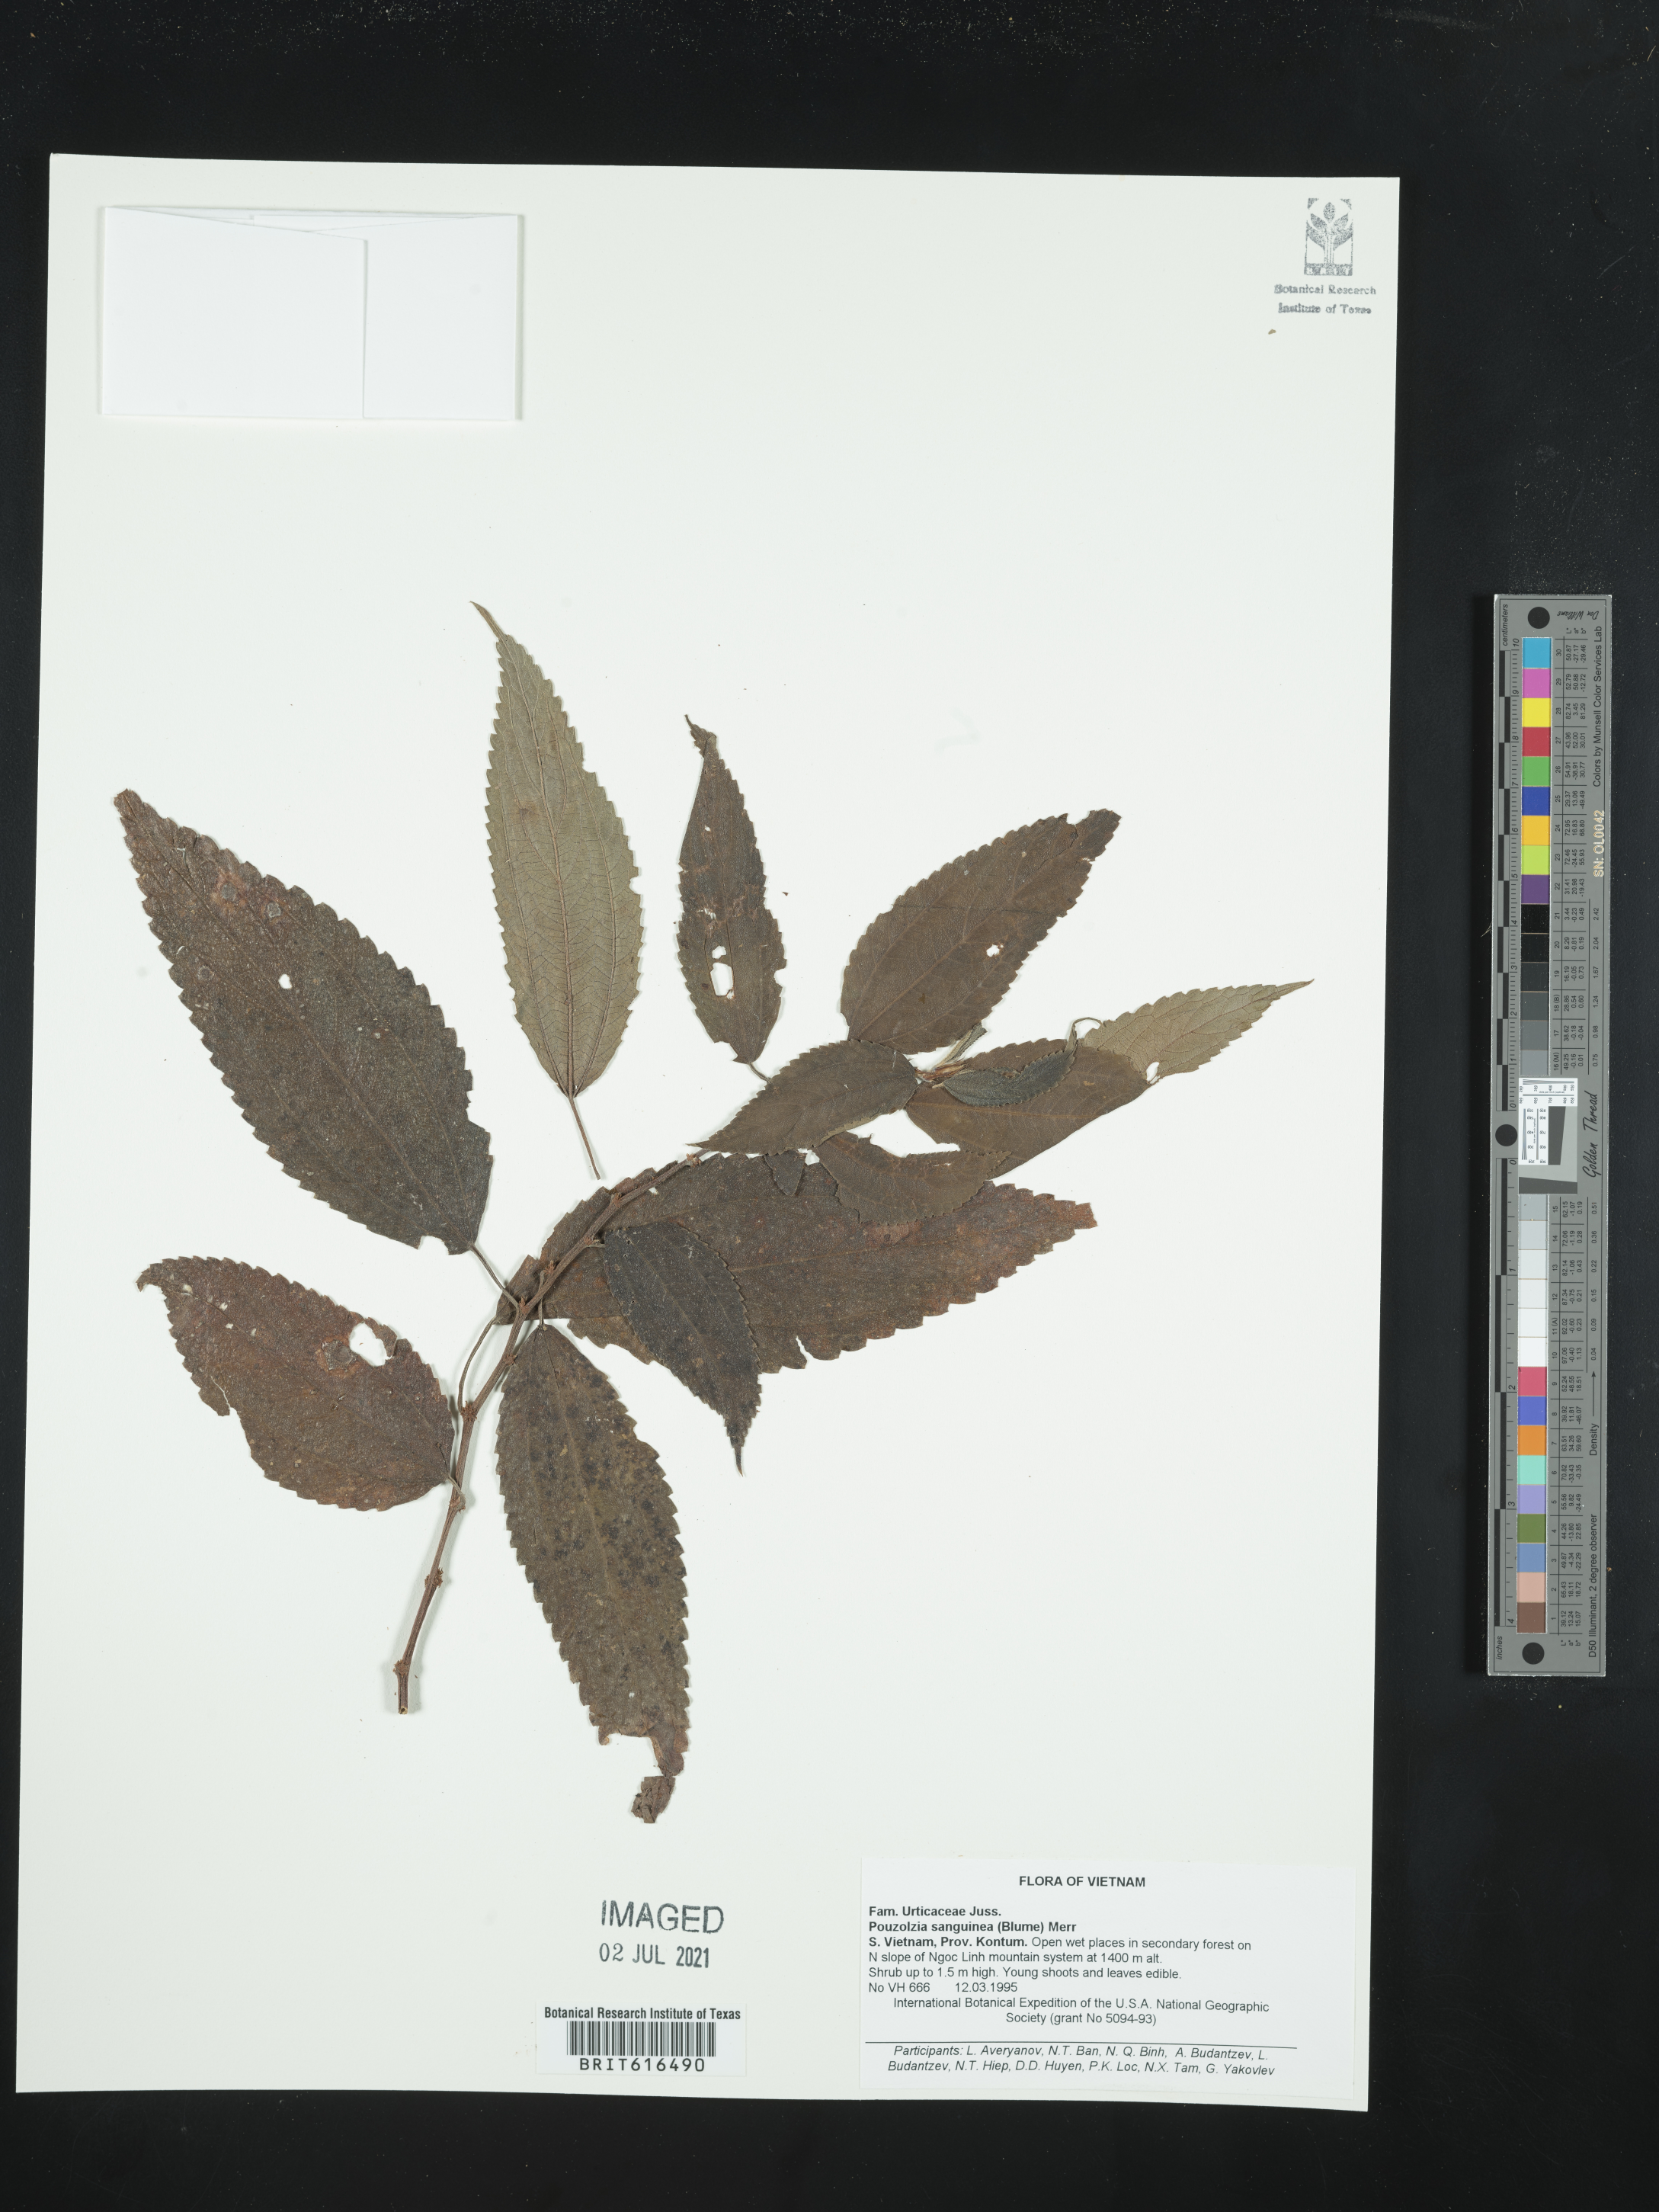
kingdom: Plantae
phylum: Tracheophyta
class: Magnoliopsida
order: Rosales
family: Urticaceae
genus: Pouzolzia
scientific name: Pouzolzia sanguinea
